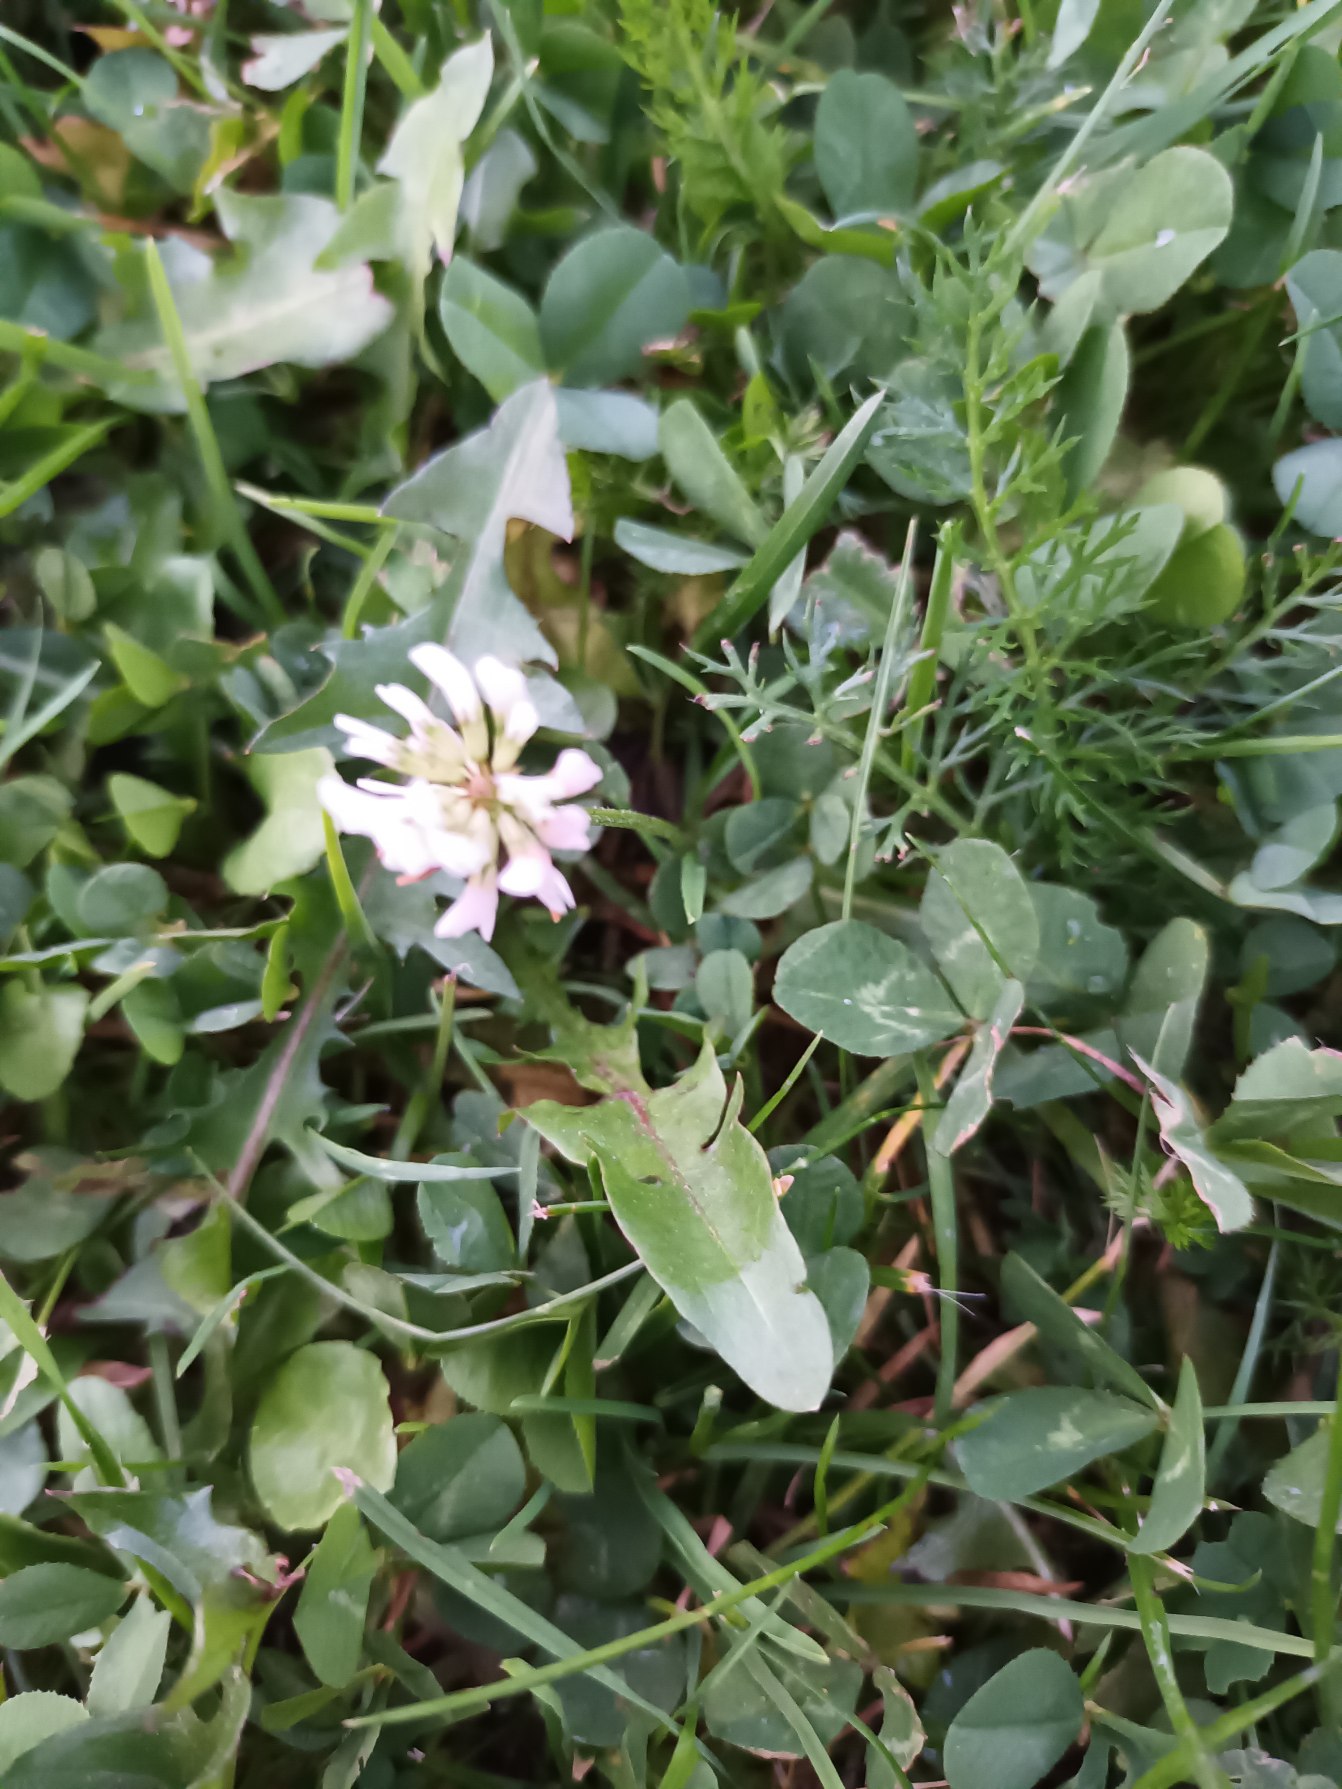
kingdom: Plantae
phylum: Tracheophyta
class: Magnoliopsida
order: Fabales
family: Fabaceae
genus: Trifolium
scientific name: Trifolium repens
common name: Hvid-kløver
